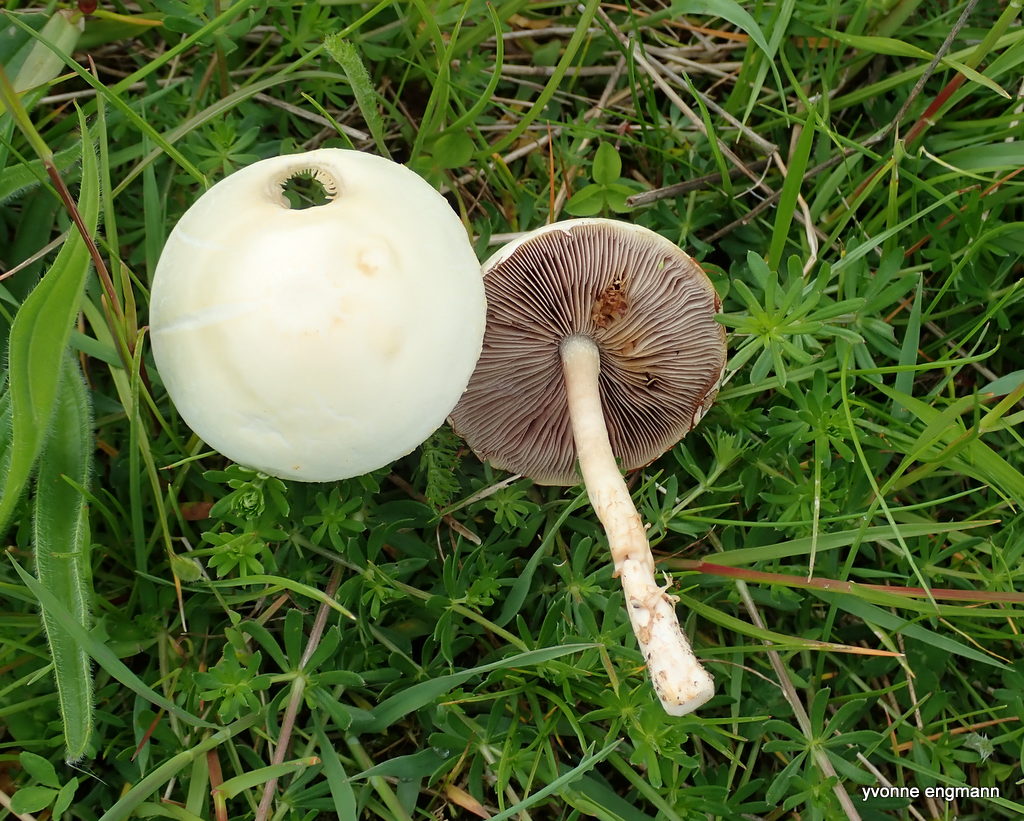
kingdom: Fungi
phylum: Basidiomycota
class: Agaricomycetes
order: Agaricales
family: Strophariaceae
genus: Agrocybe
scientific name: Agrocybe
